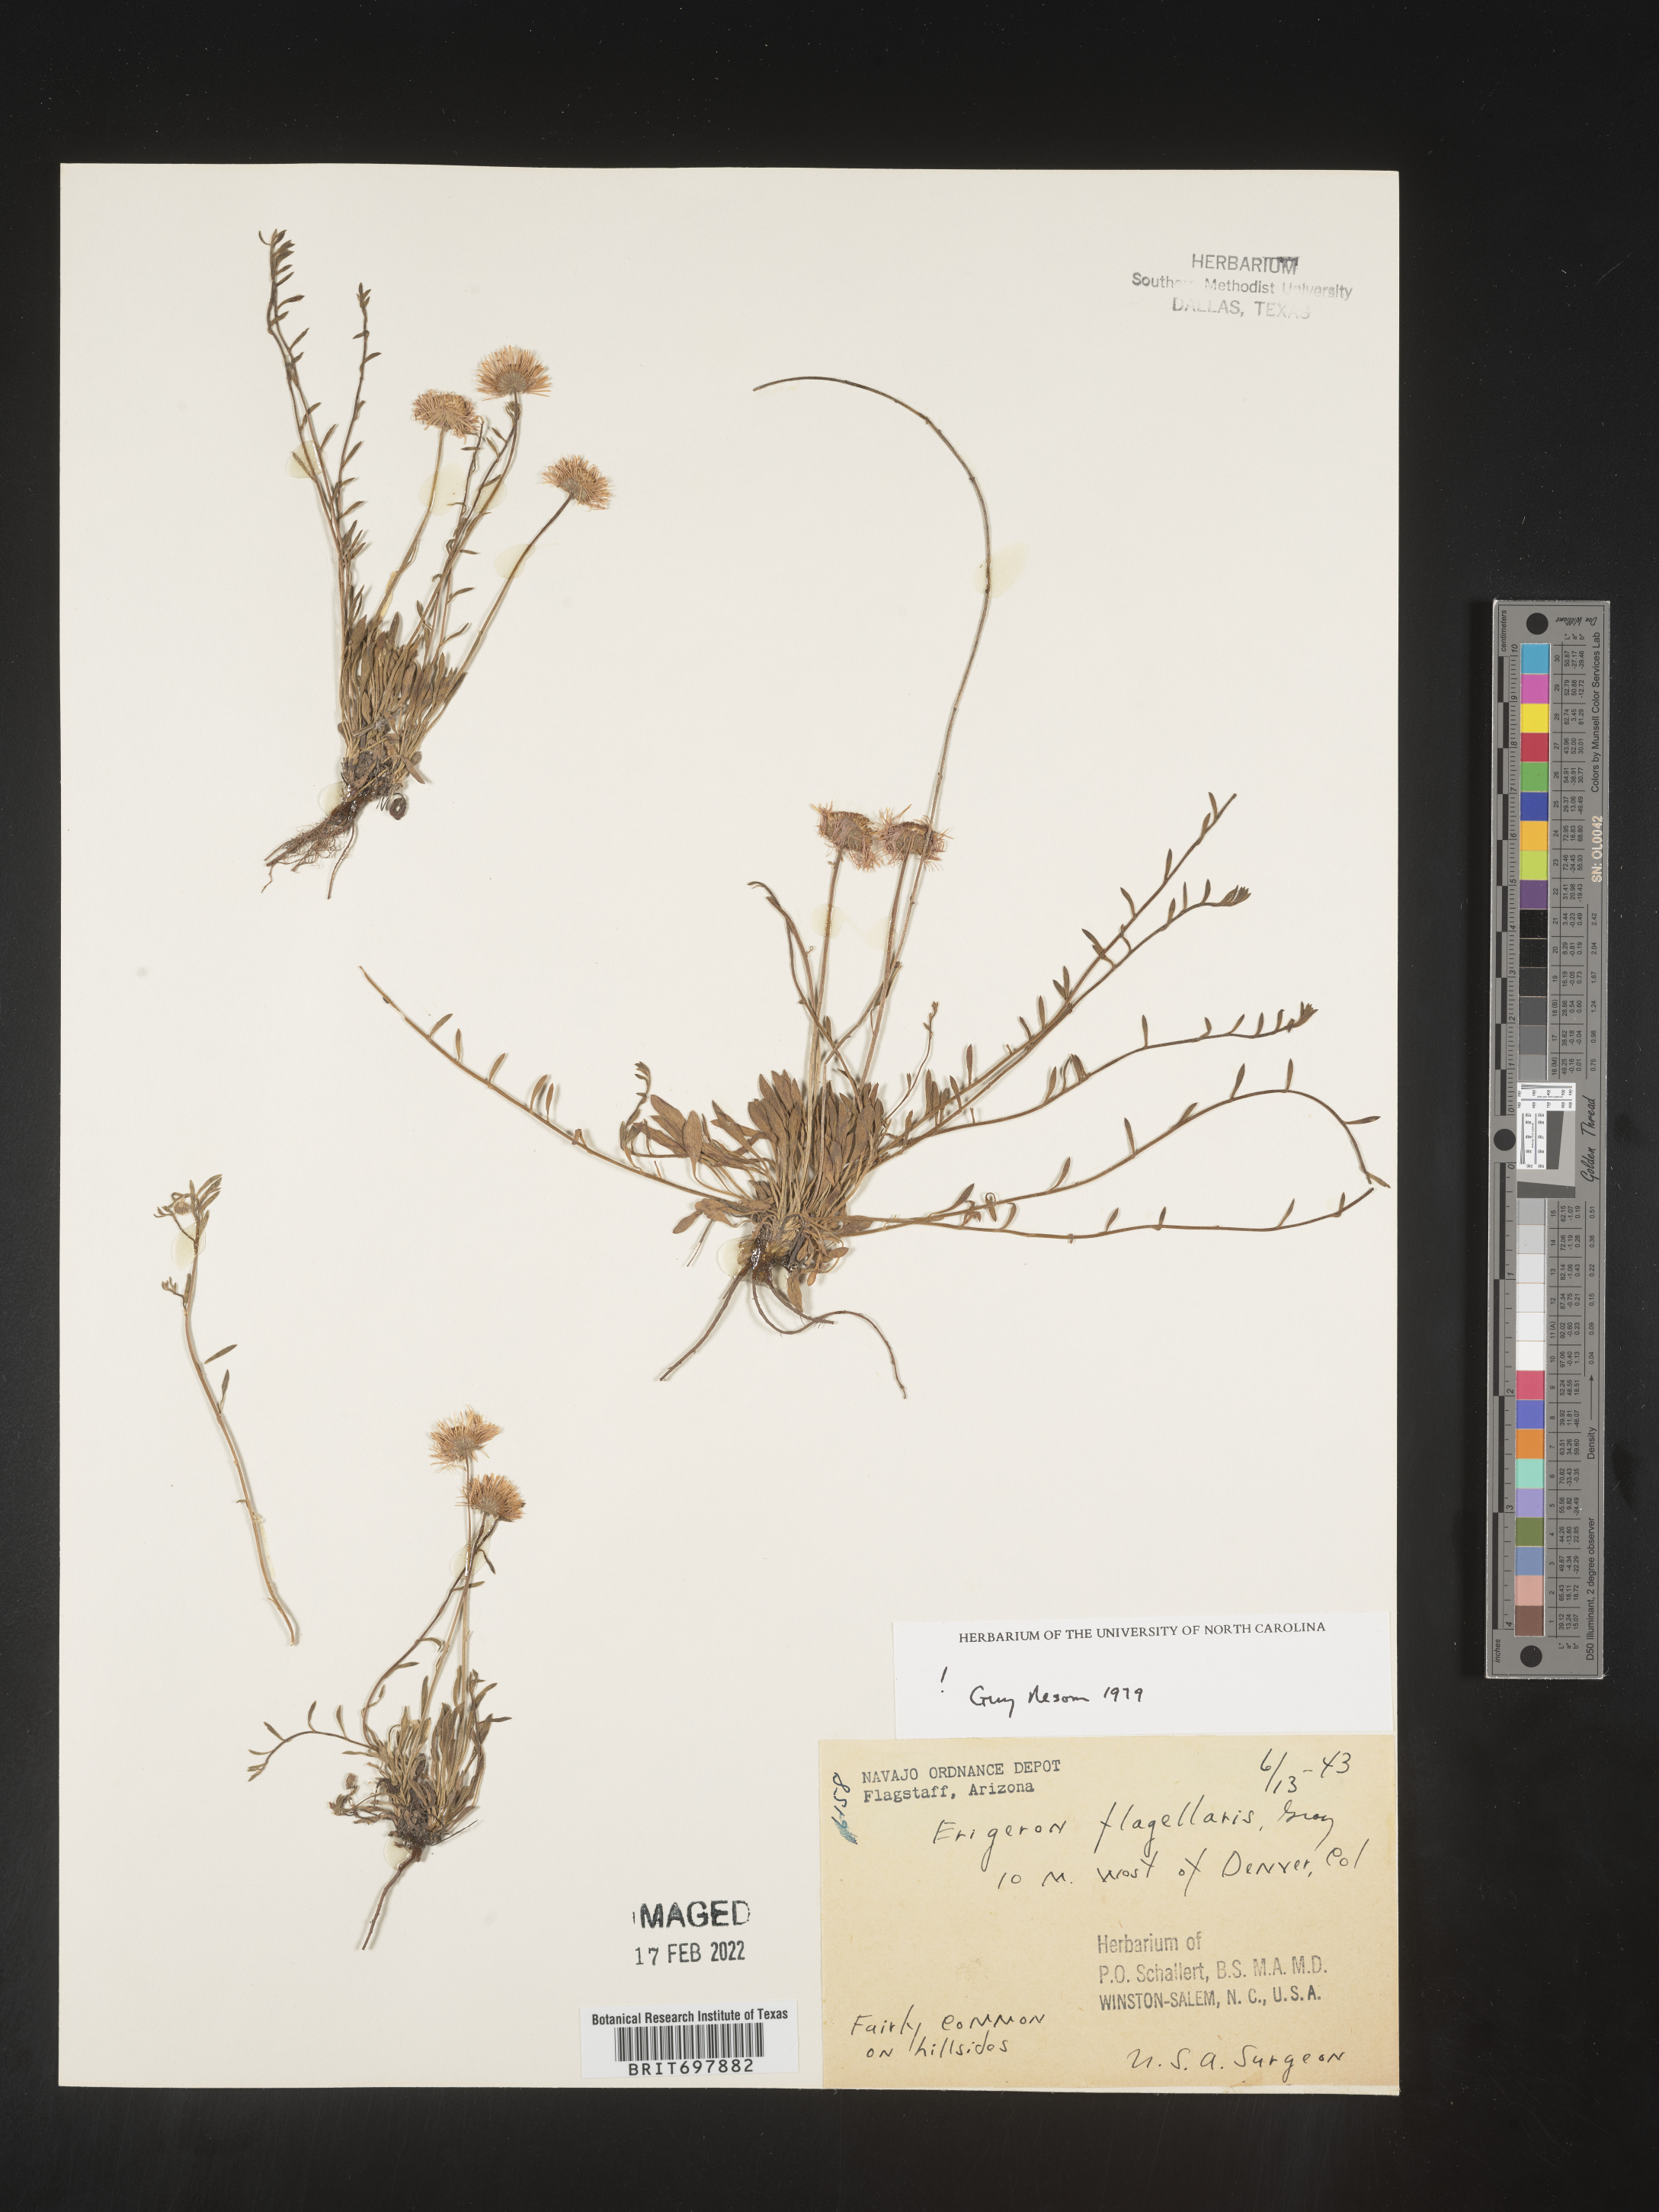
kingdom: Plantae
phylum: Tracheophyta
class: Magnoliopsida
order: Asterales
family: Asteraceae
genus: Erigeron
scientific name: Erigeron flagellaris
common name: Running fleabane
